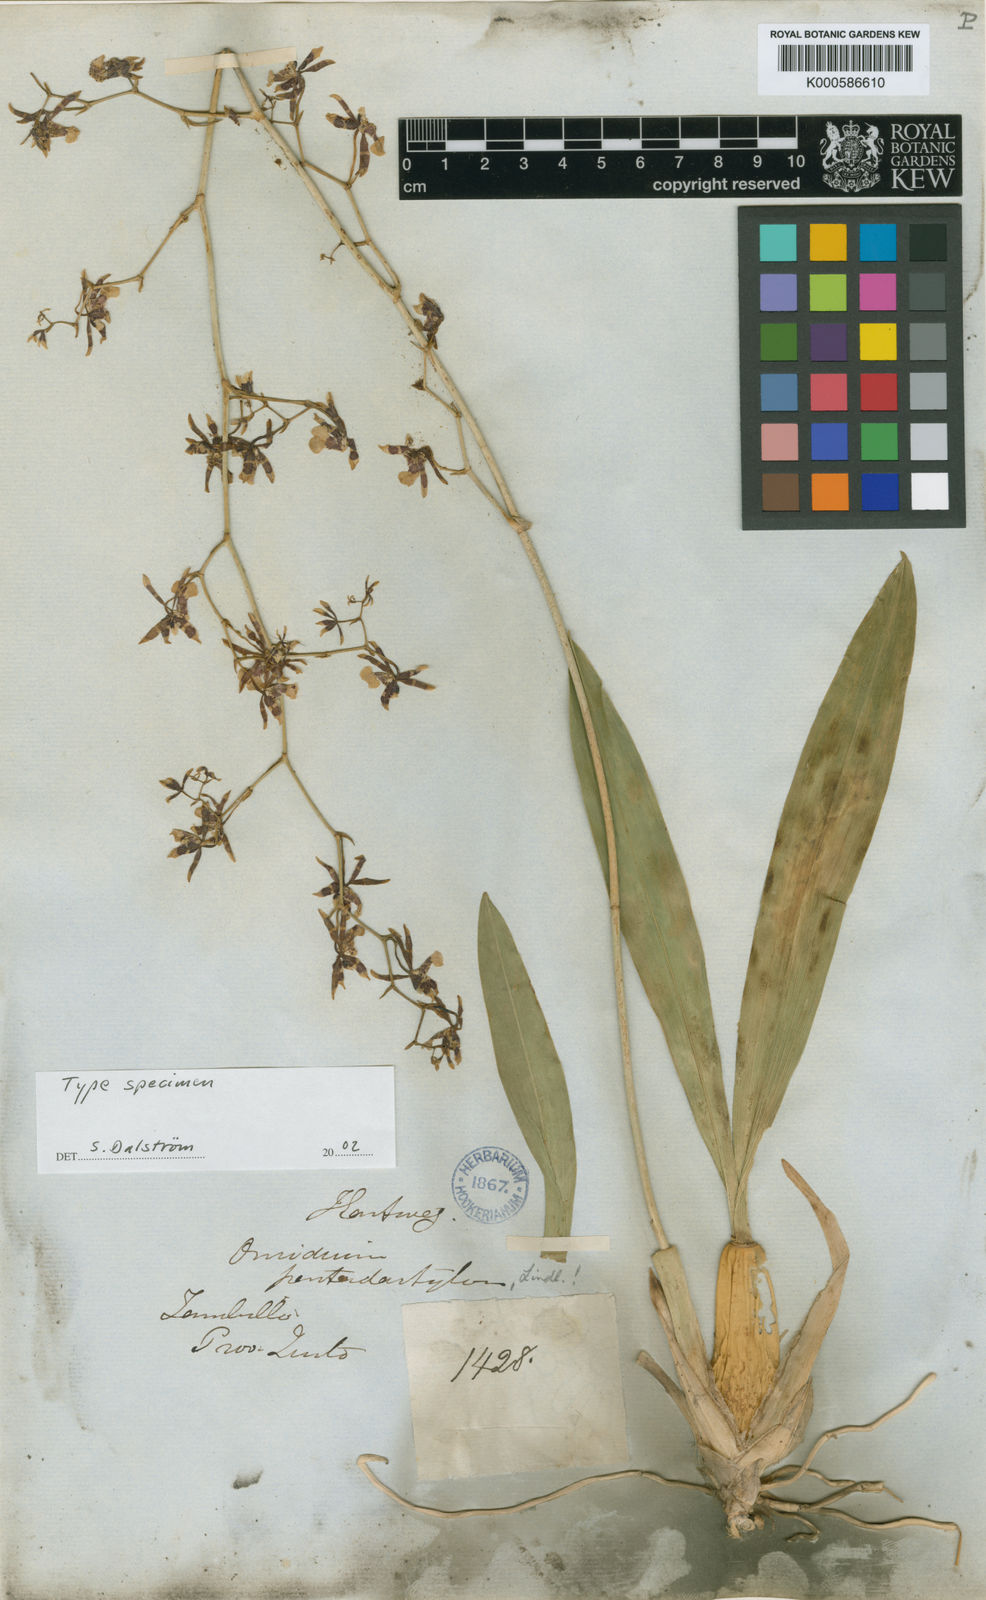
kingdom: Plantae
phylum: Tracheophyta
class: Liliopsida
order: Asparagales
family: Orchidaceae
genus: Oncidium
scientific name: Oncidium pentadactylon
